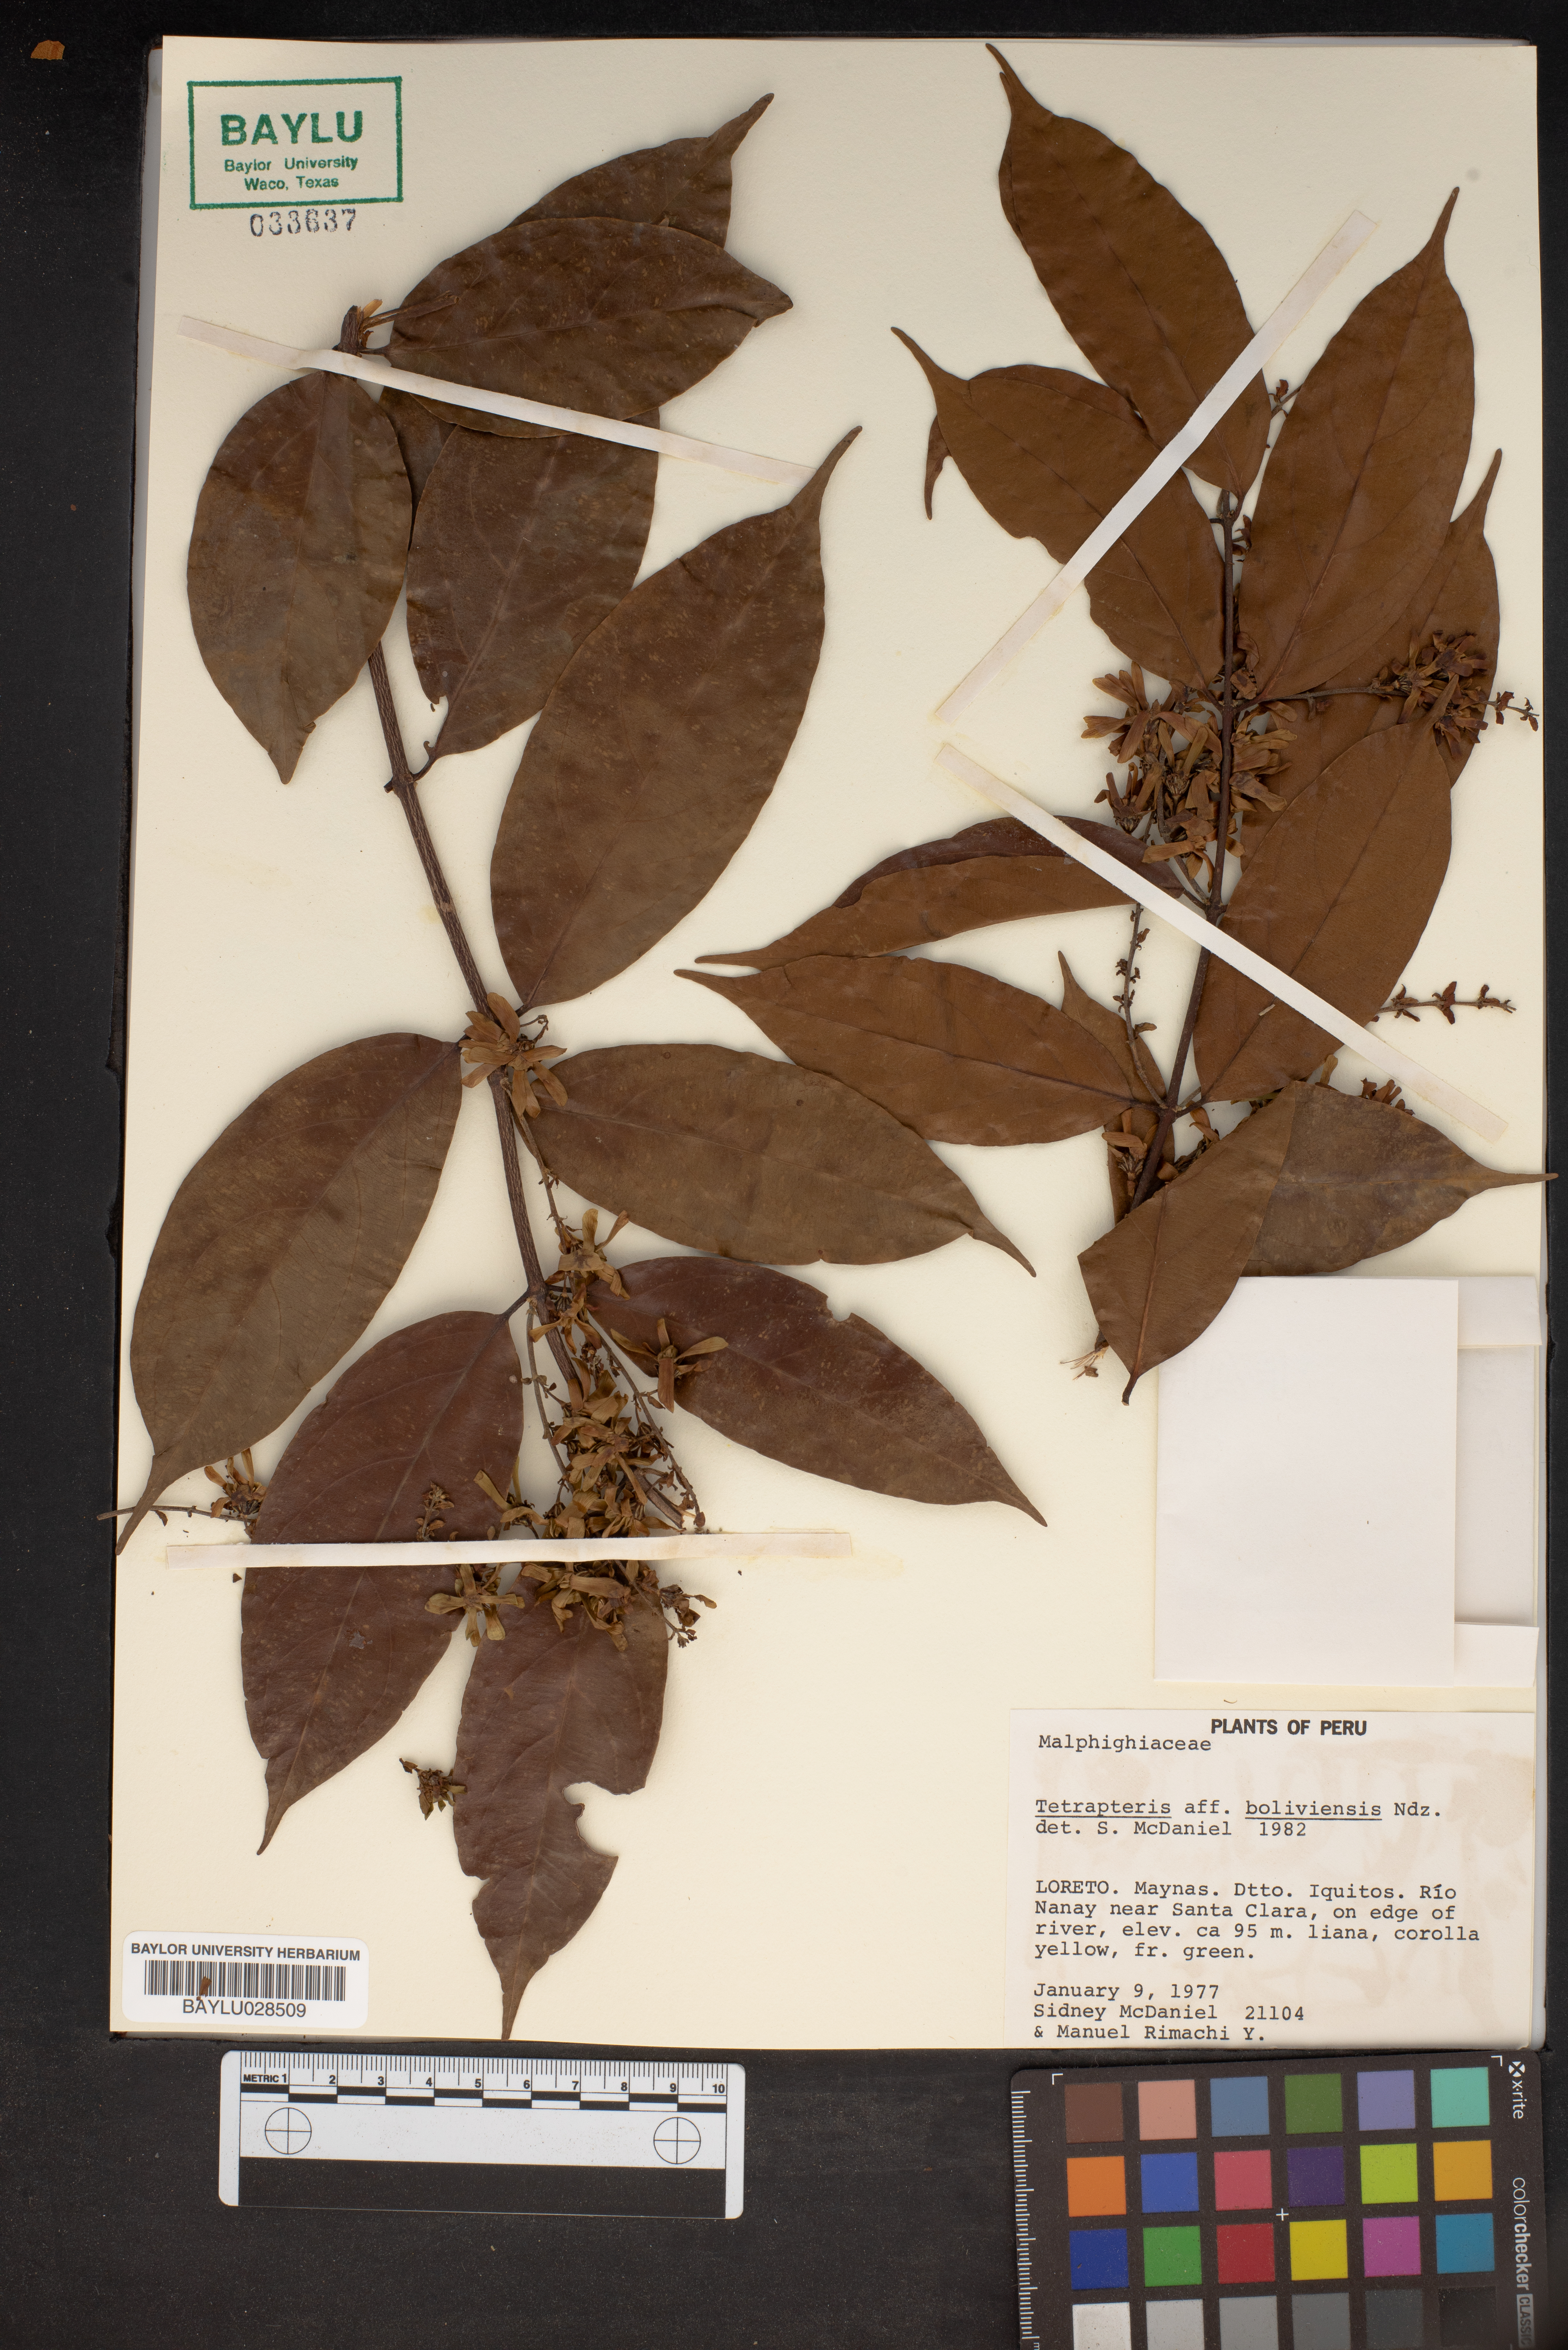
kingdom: Plantae
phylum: Tracheophyta
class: Magnoliopsida
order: Malpighiales
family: Malpighiaceae
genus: Glicophyllum
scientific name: Glicophyllum stylopterum
